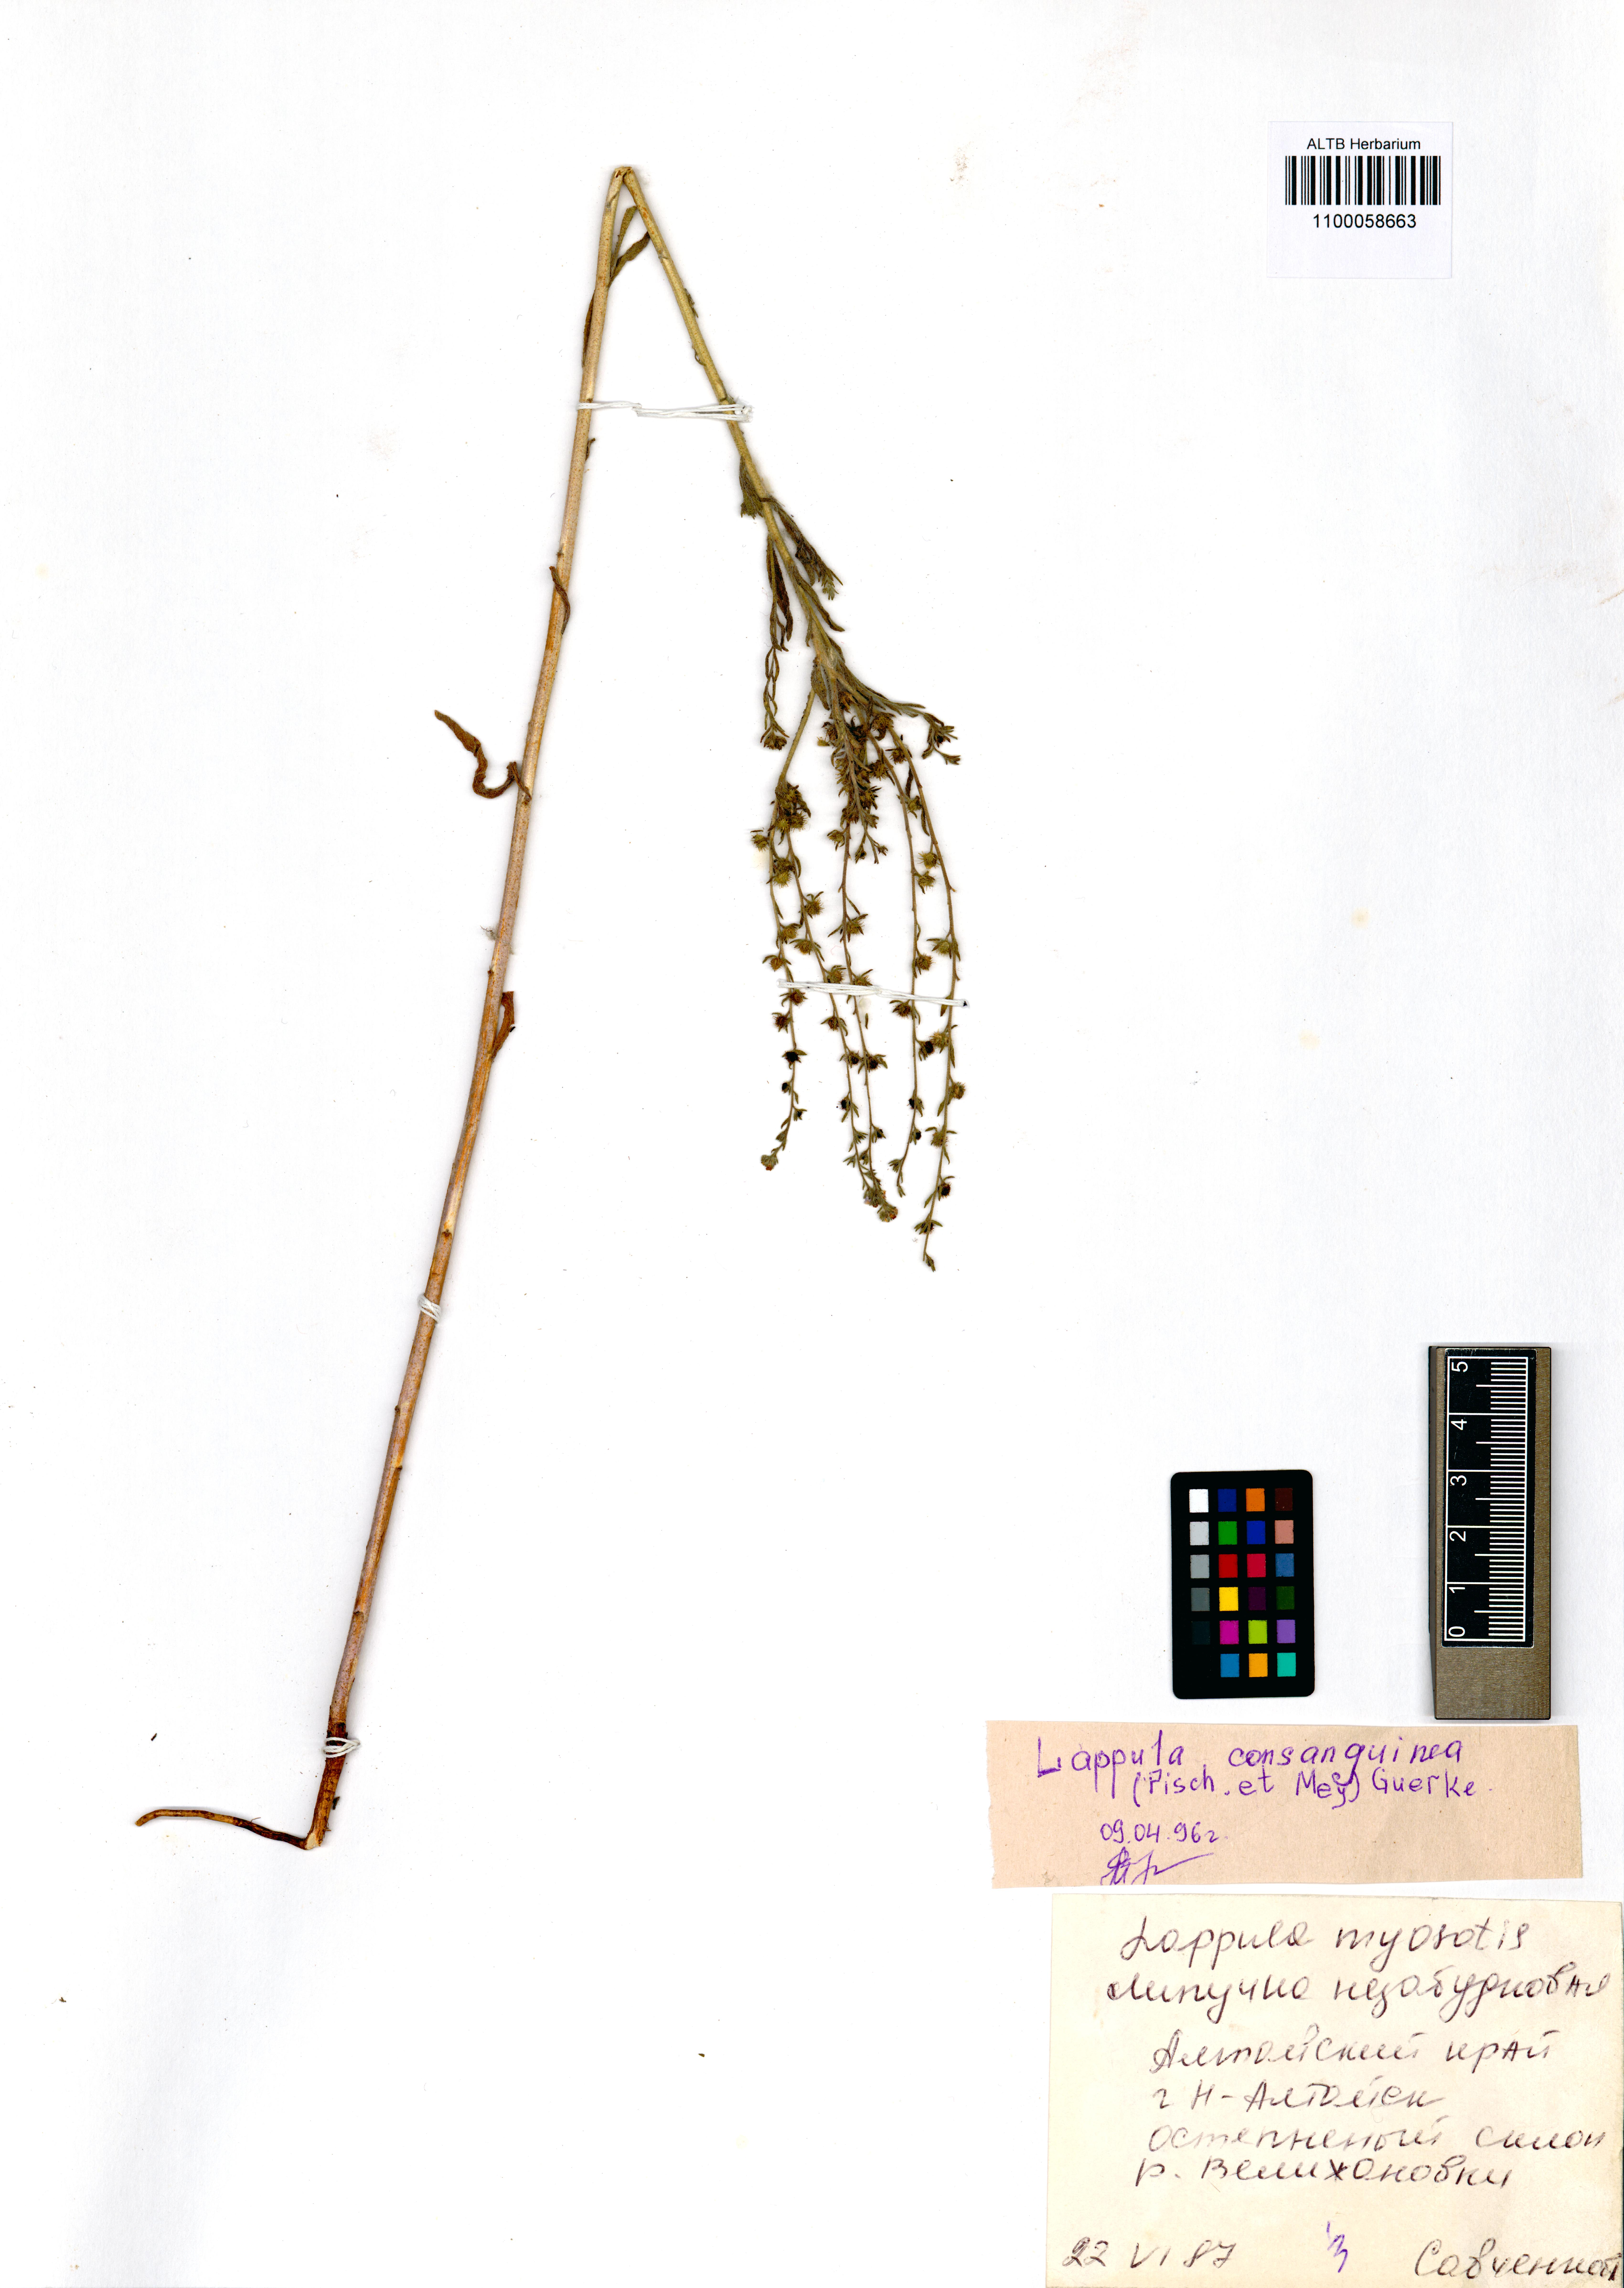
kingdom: Plantae
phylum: Tracheophyta
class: Magnoliopsida
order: Boraginales
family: Boraginaceae
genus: Lappula
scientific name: Lappula squarrosa
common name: European stickseed
